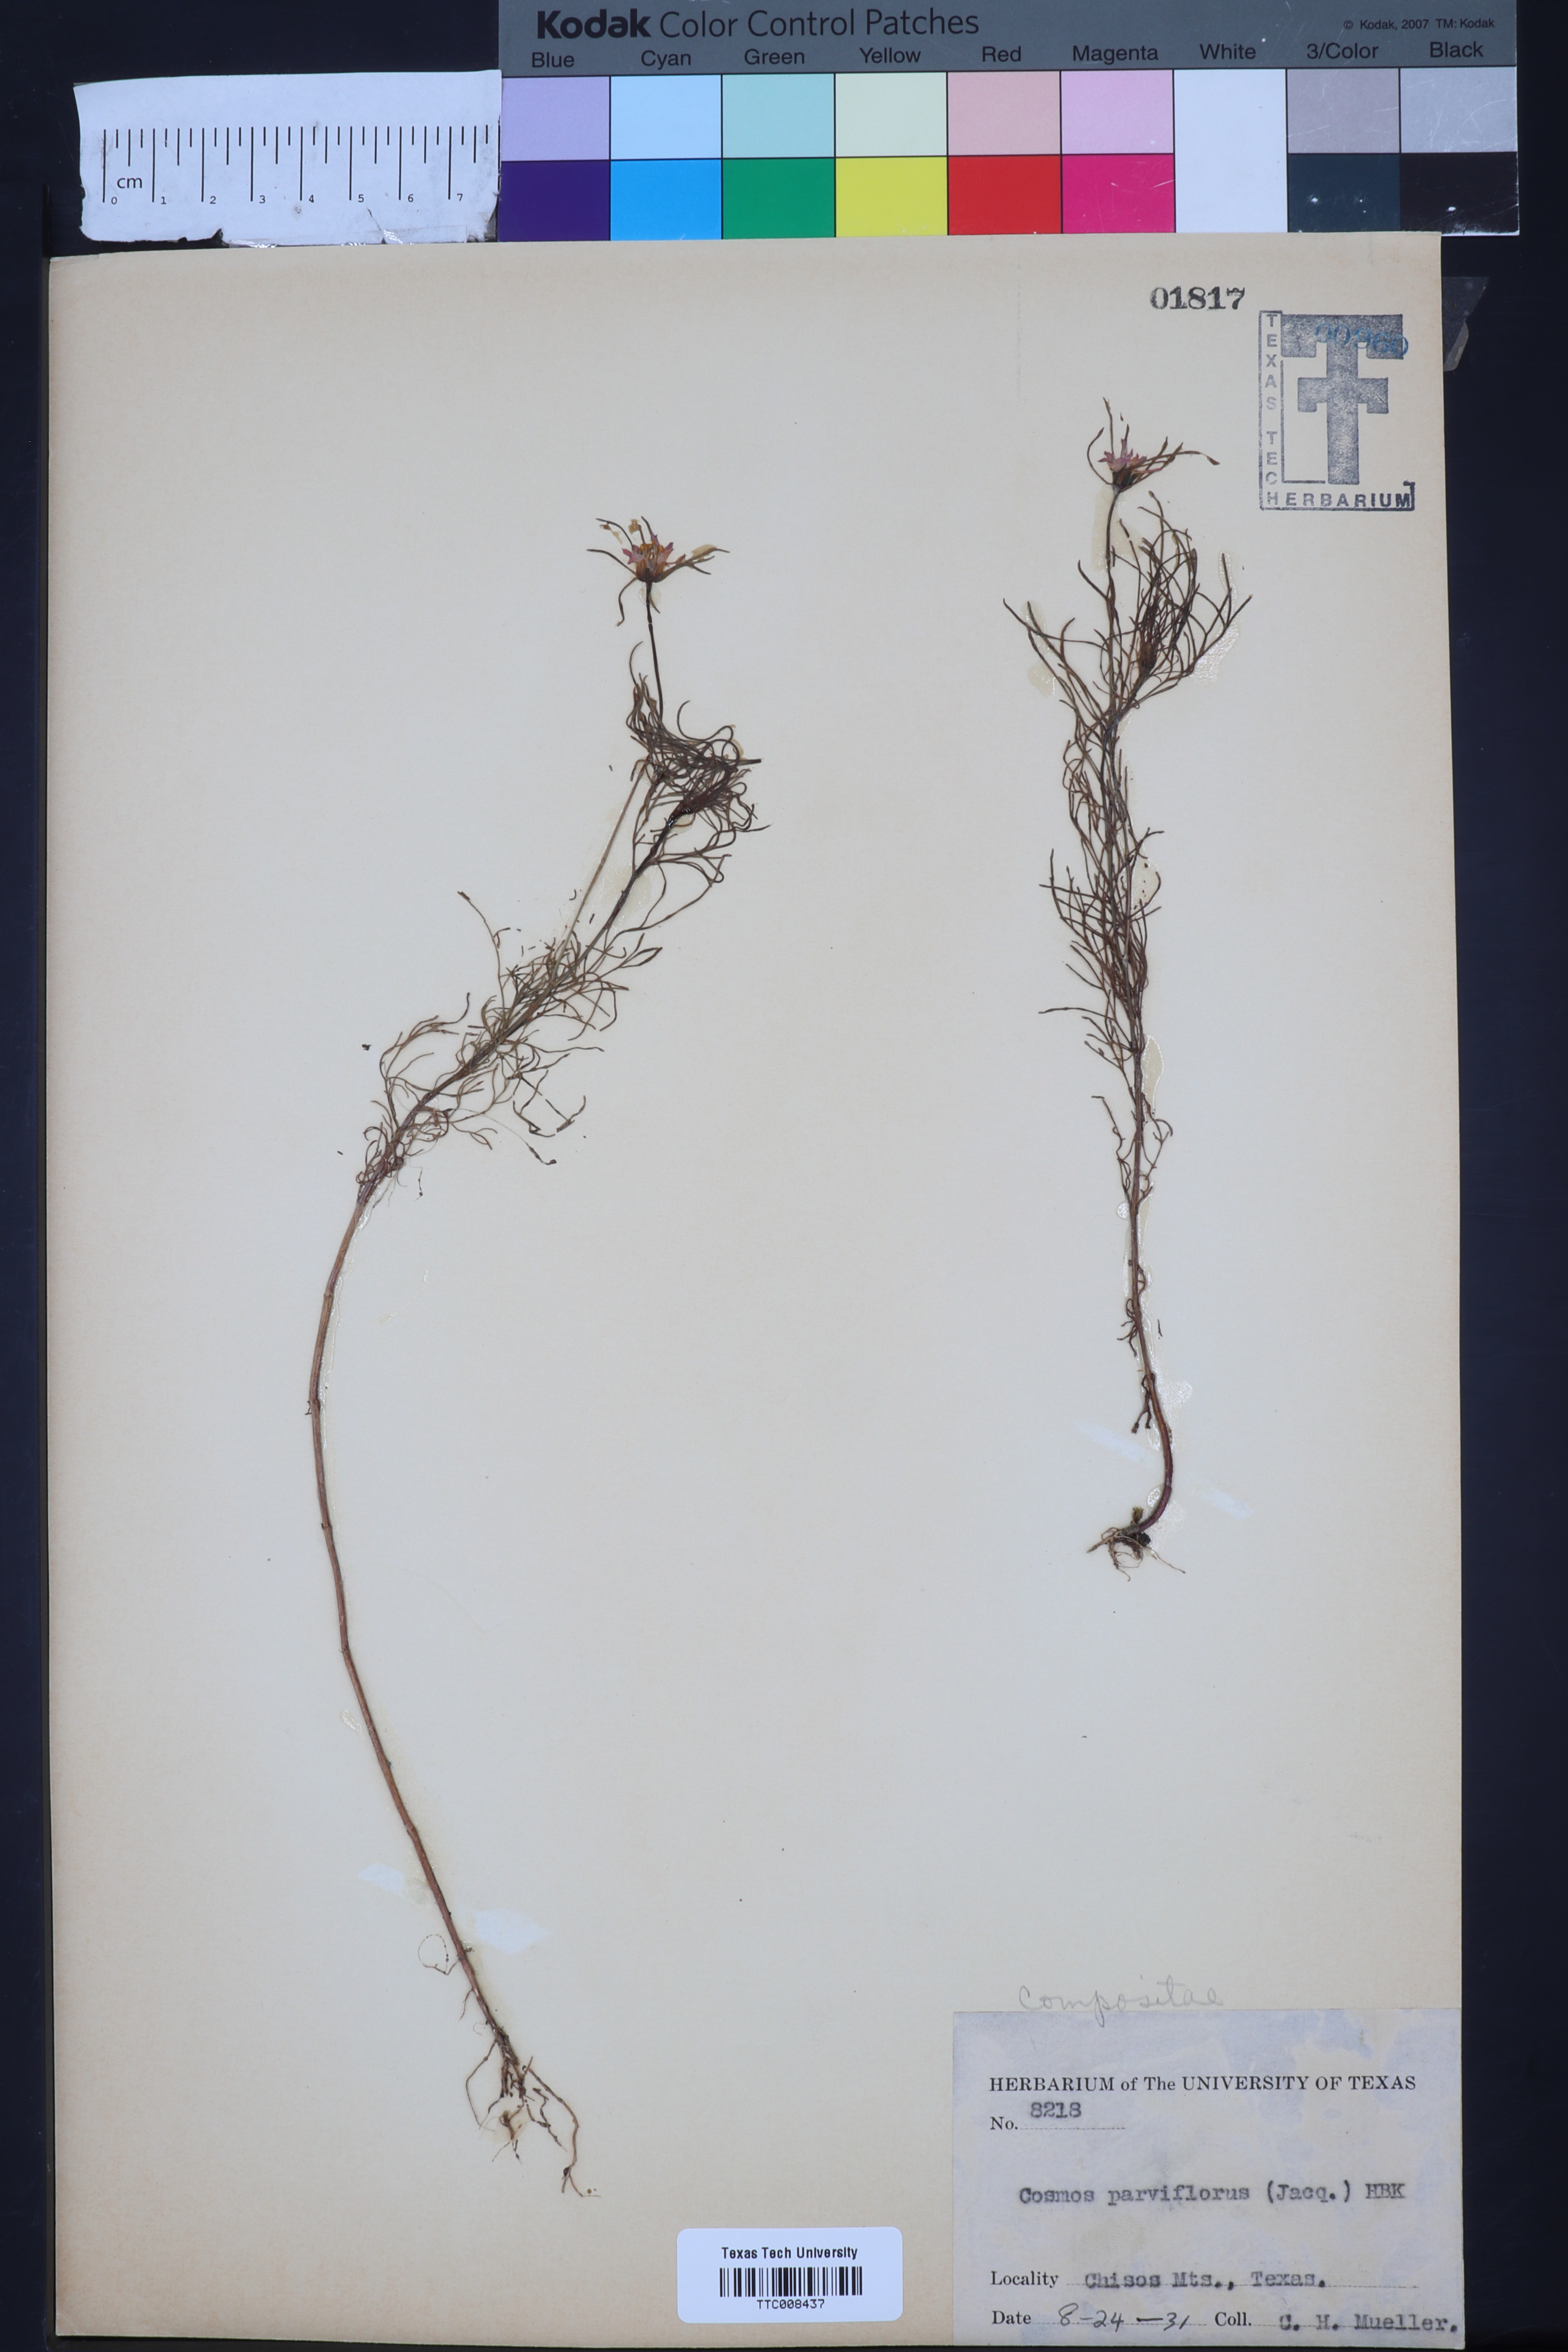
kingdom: Plantae
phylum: Tracheophyta
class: Magnoliopsida
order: Asterales
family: Asteraceae
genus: Cosmos
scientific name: Cosmos parviflorus
